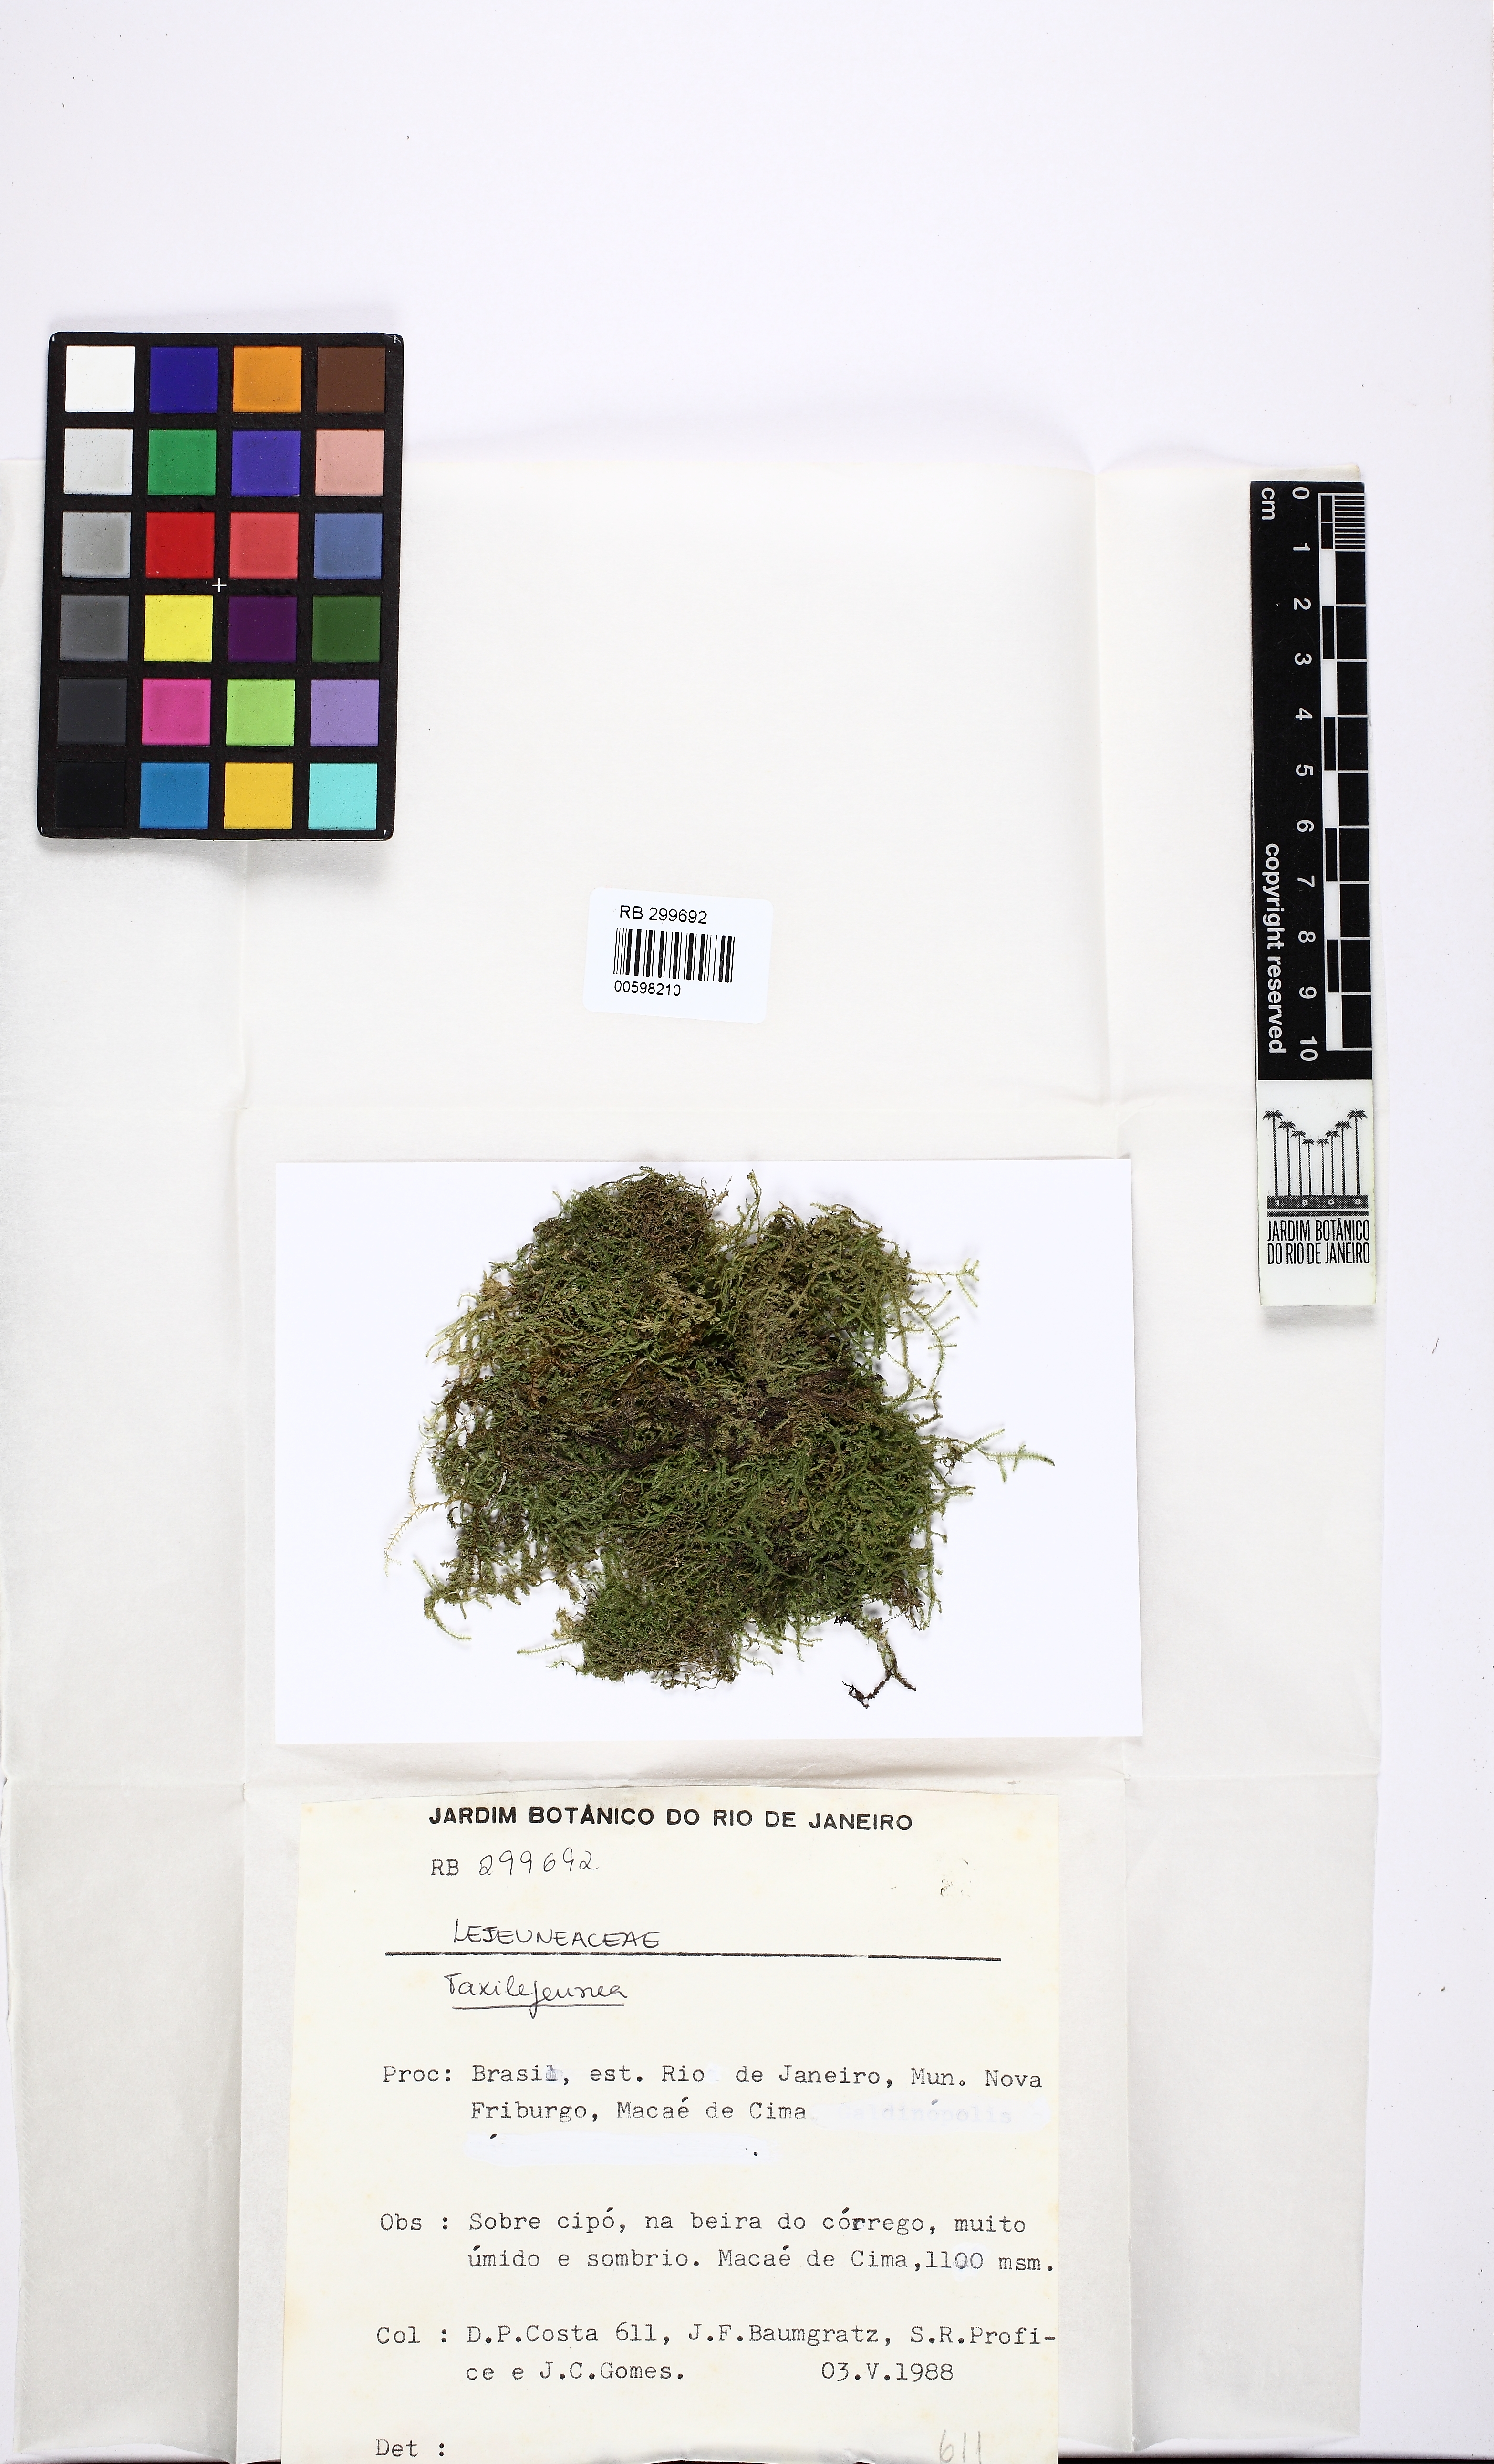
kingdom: Plantae
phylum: Marchantiophyta
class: Jungermanniopsida
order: Porellales
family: Lejeuneaceae
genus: Taxilejeunea
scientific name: Taxilejeunea
